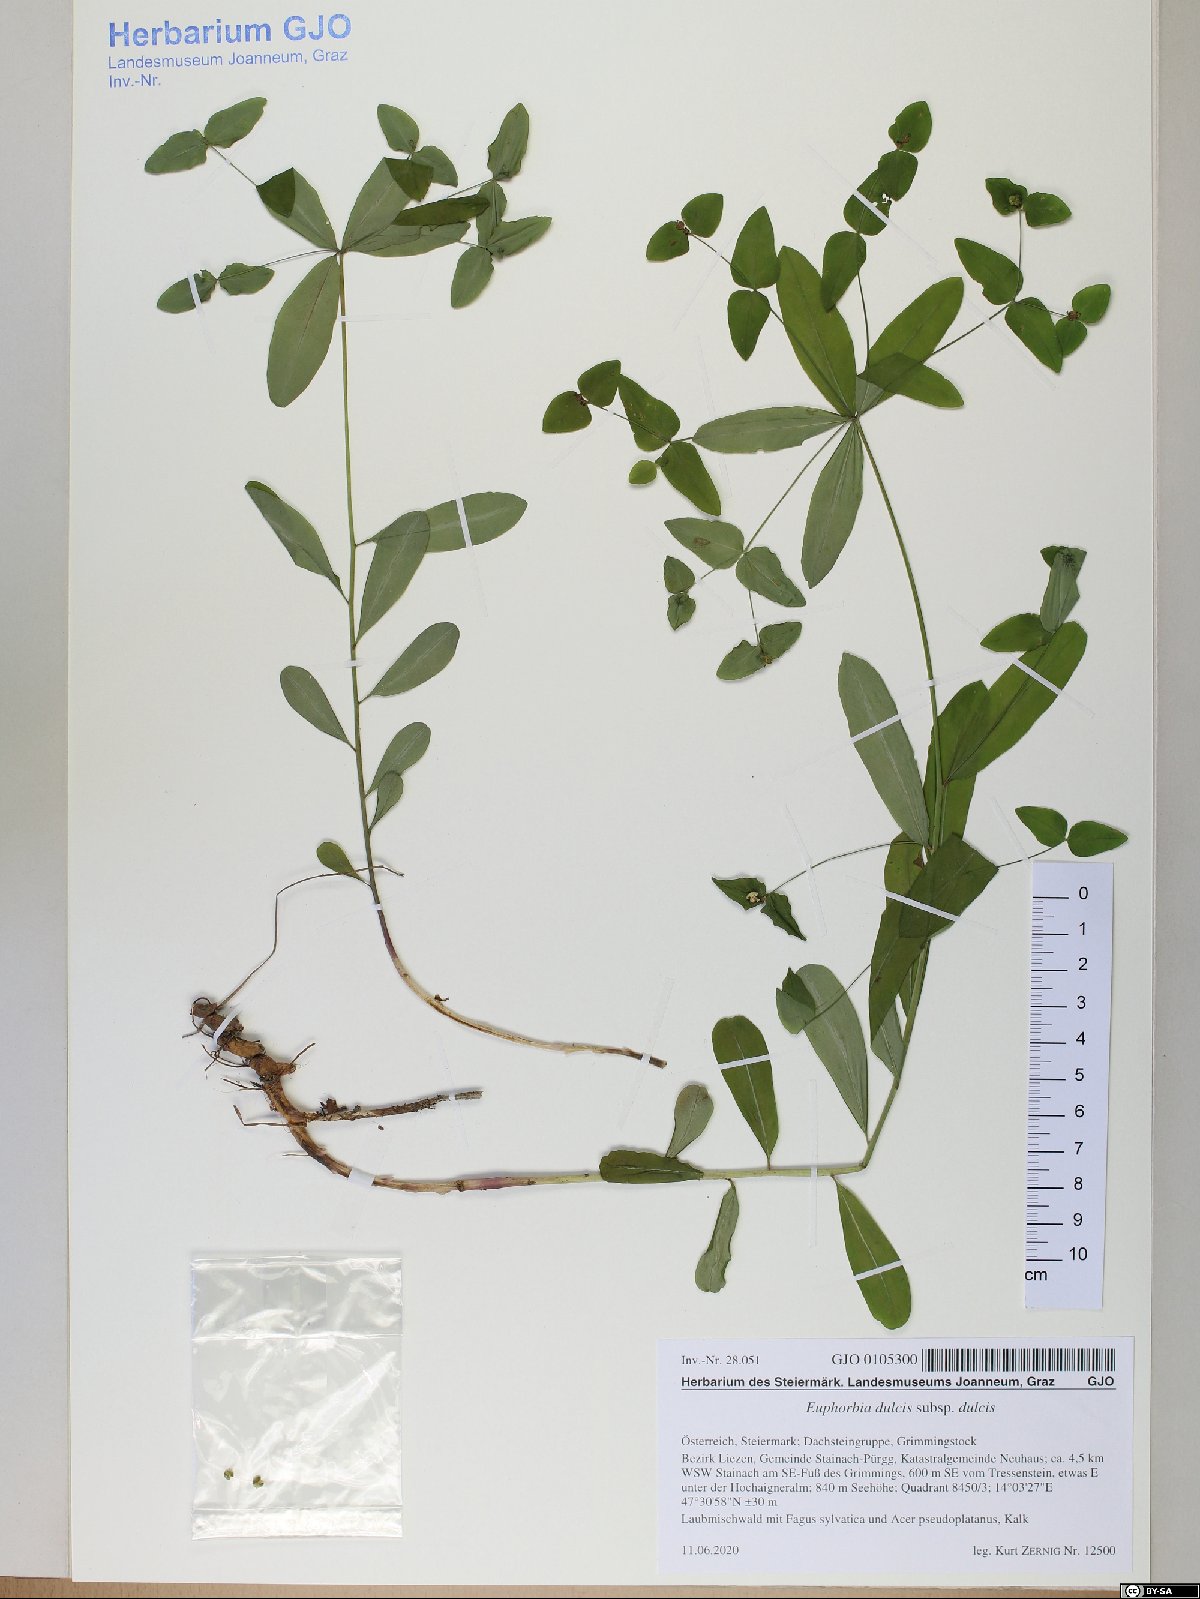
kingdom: Plantae
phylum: Tracheophyta
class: Magnoliopsida
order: Malpighiales
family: Euphorbiaceae
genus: Euphorbia
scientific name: Euphorbia dulcis
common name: Sweet spurge
